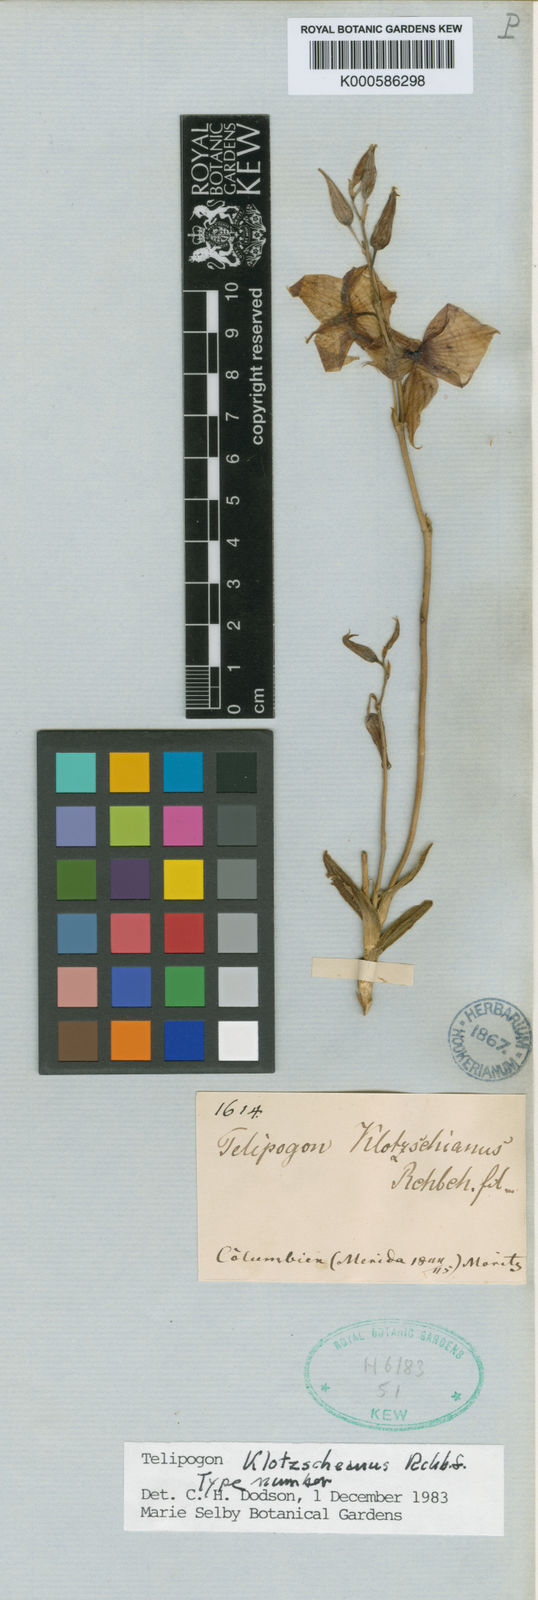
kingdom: Plantae
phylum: Tracheophyta
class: Liliopsida
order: Asparagales
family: Orchidaceae
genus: Telipogon
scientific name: Telipogon klotzscheanus
